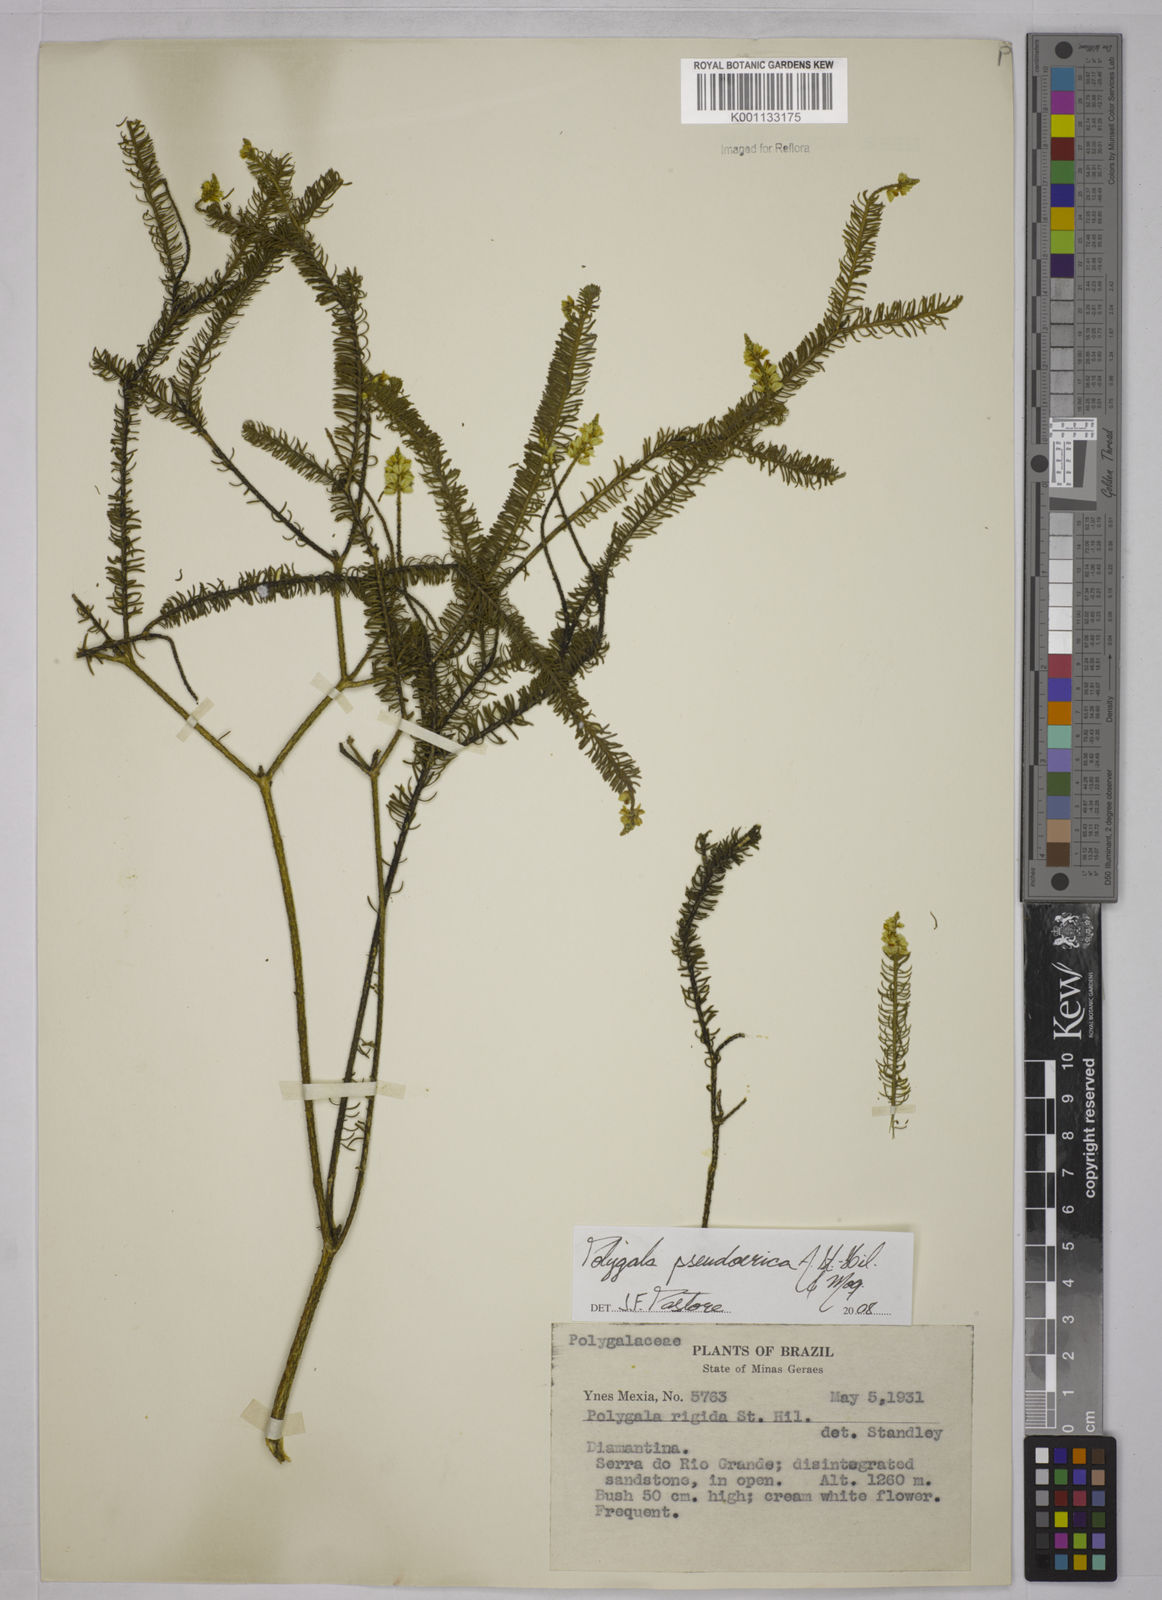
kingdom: Plantae
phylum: Tracheophyta
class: Magnoliopsida
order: Fabales
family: Polygalaceae
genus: Polygala
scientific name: Polygala pseudoerica
